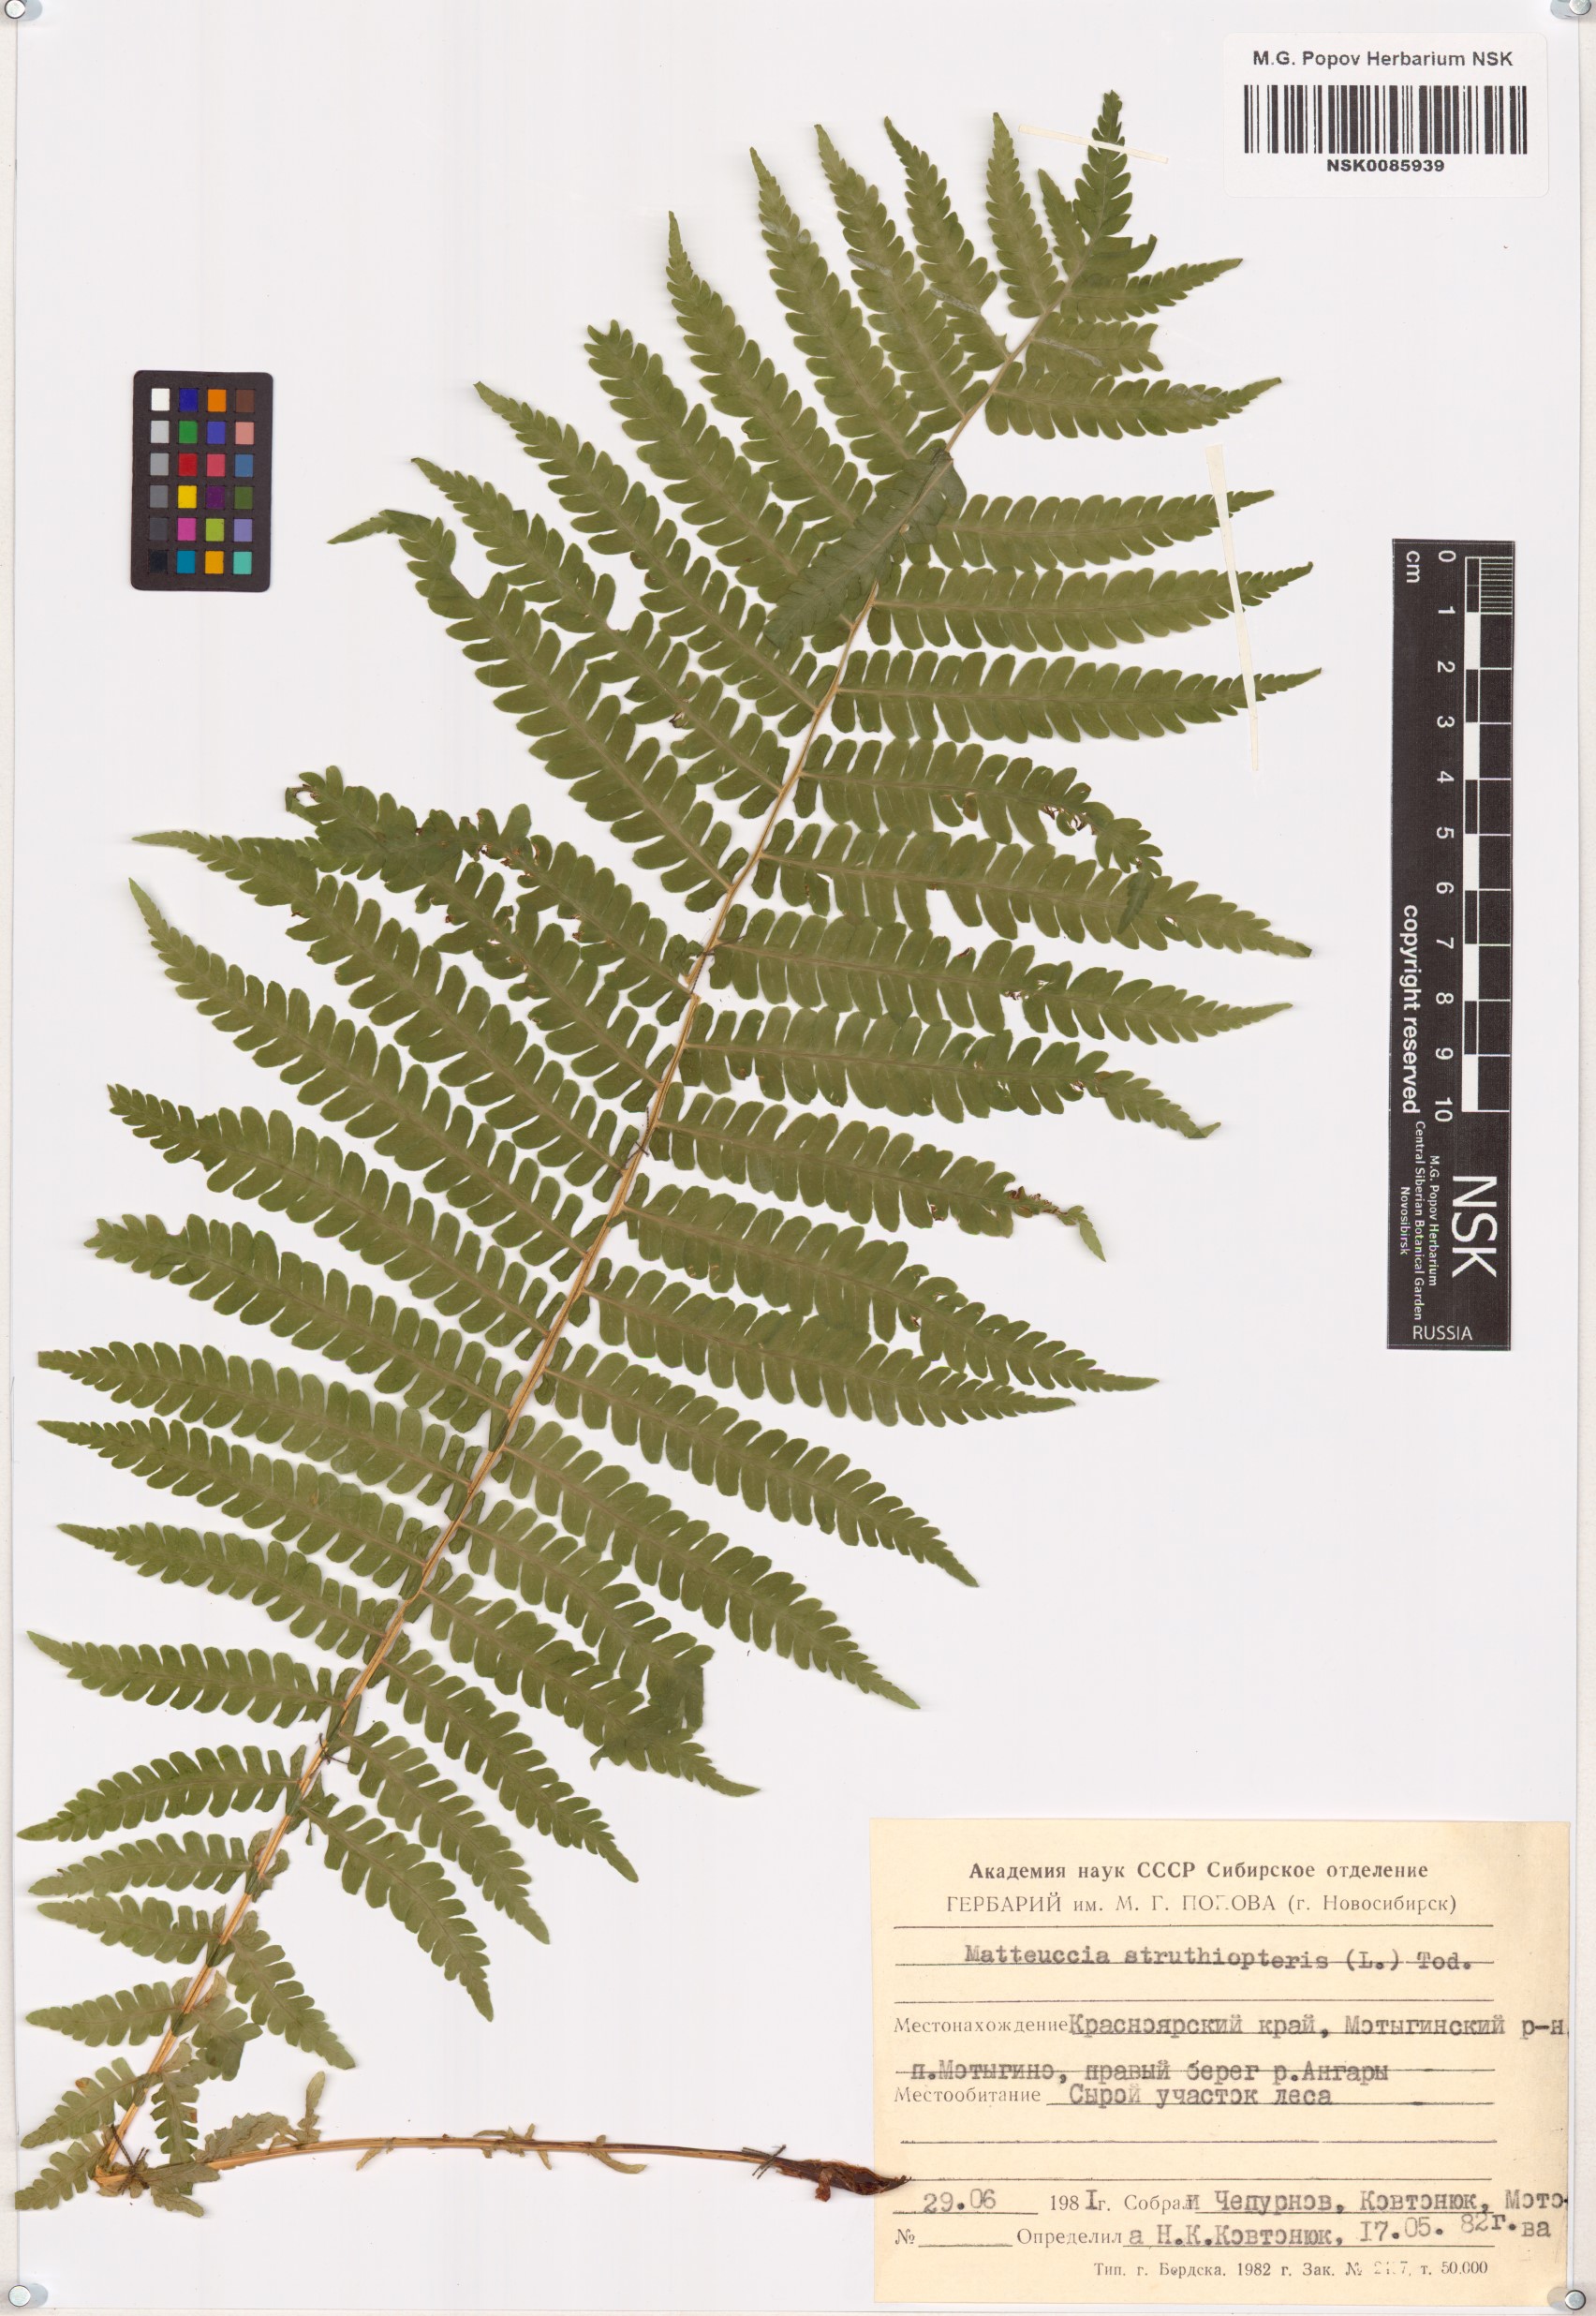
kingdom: Plantae
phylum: Tracheophyta
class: Polypodiopsida
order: Polypodiales
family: Onocleaceae
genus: Matteuccia
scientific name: Matteuccia struthiopteris
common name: Ostrich fern
